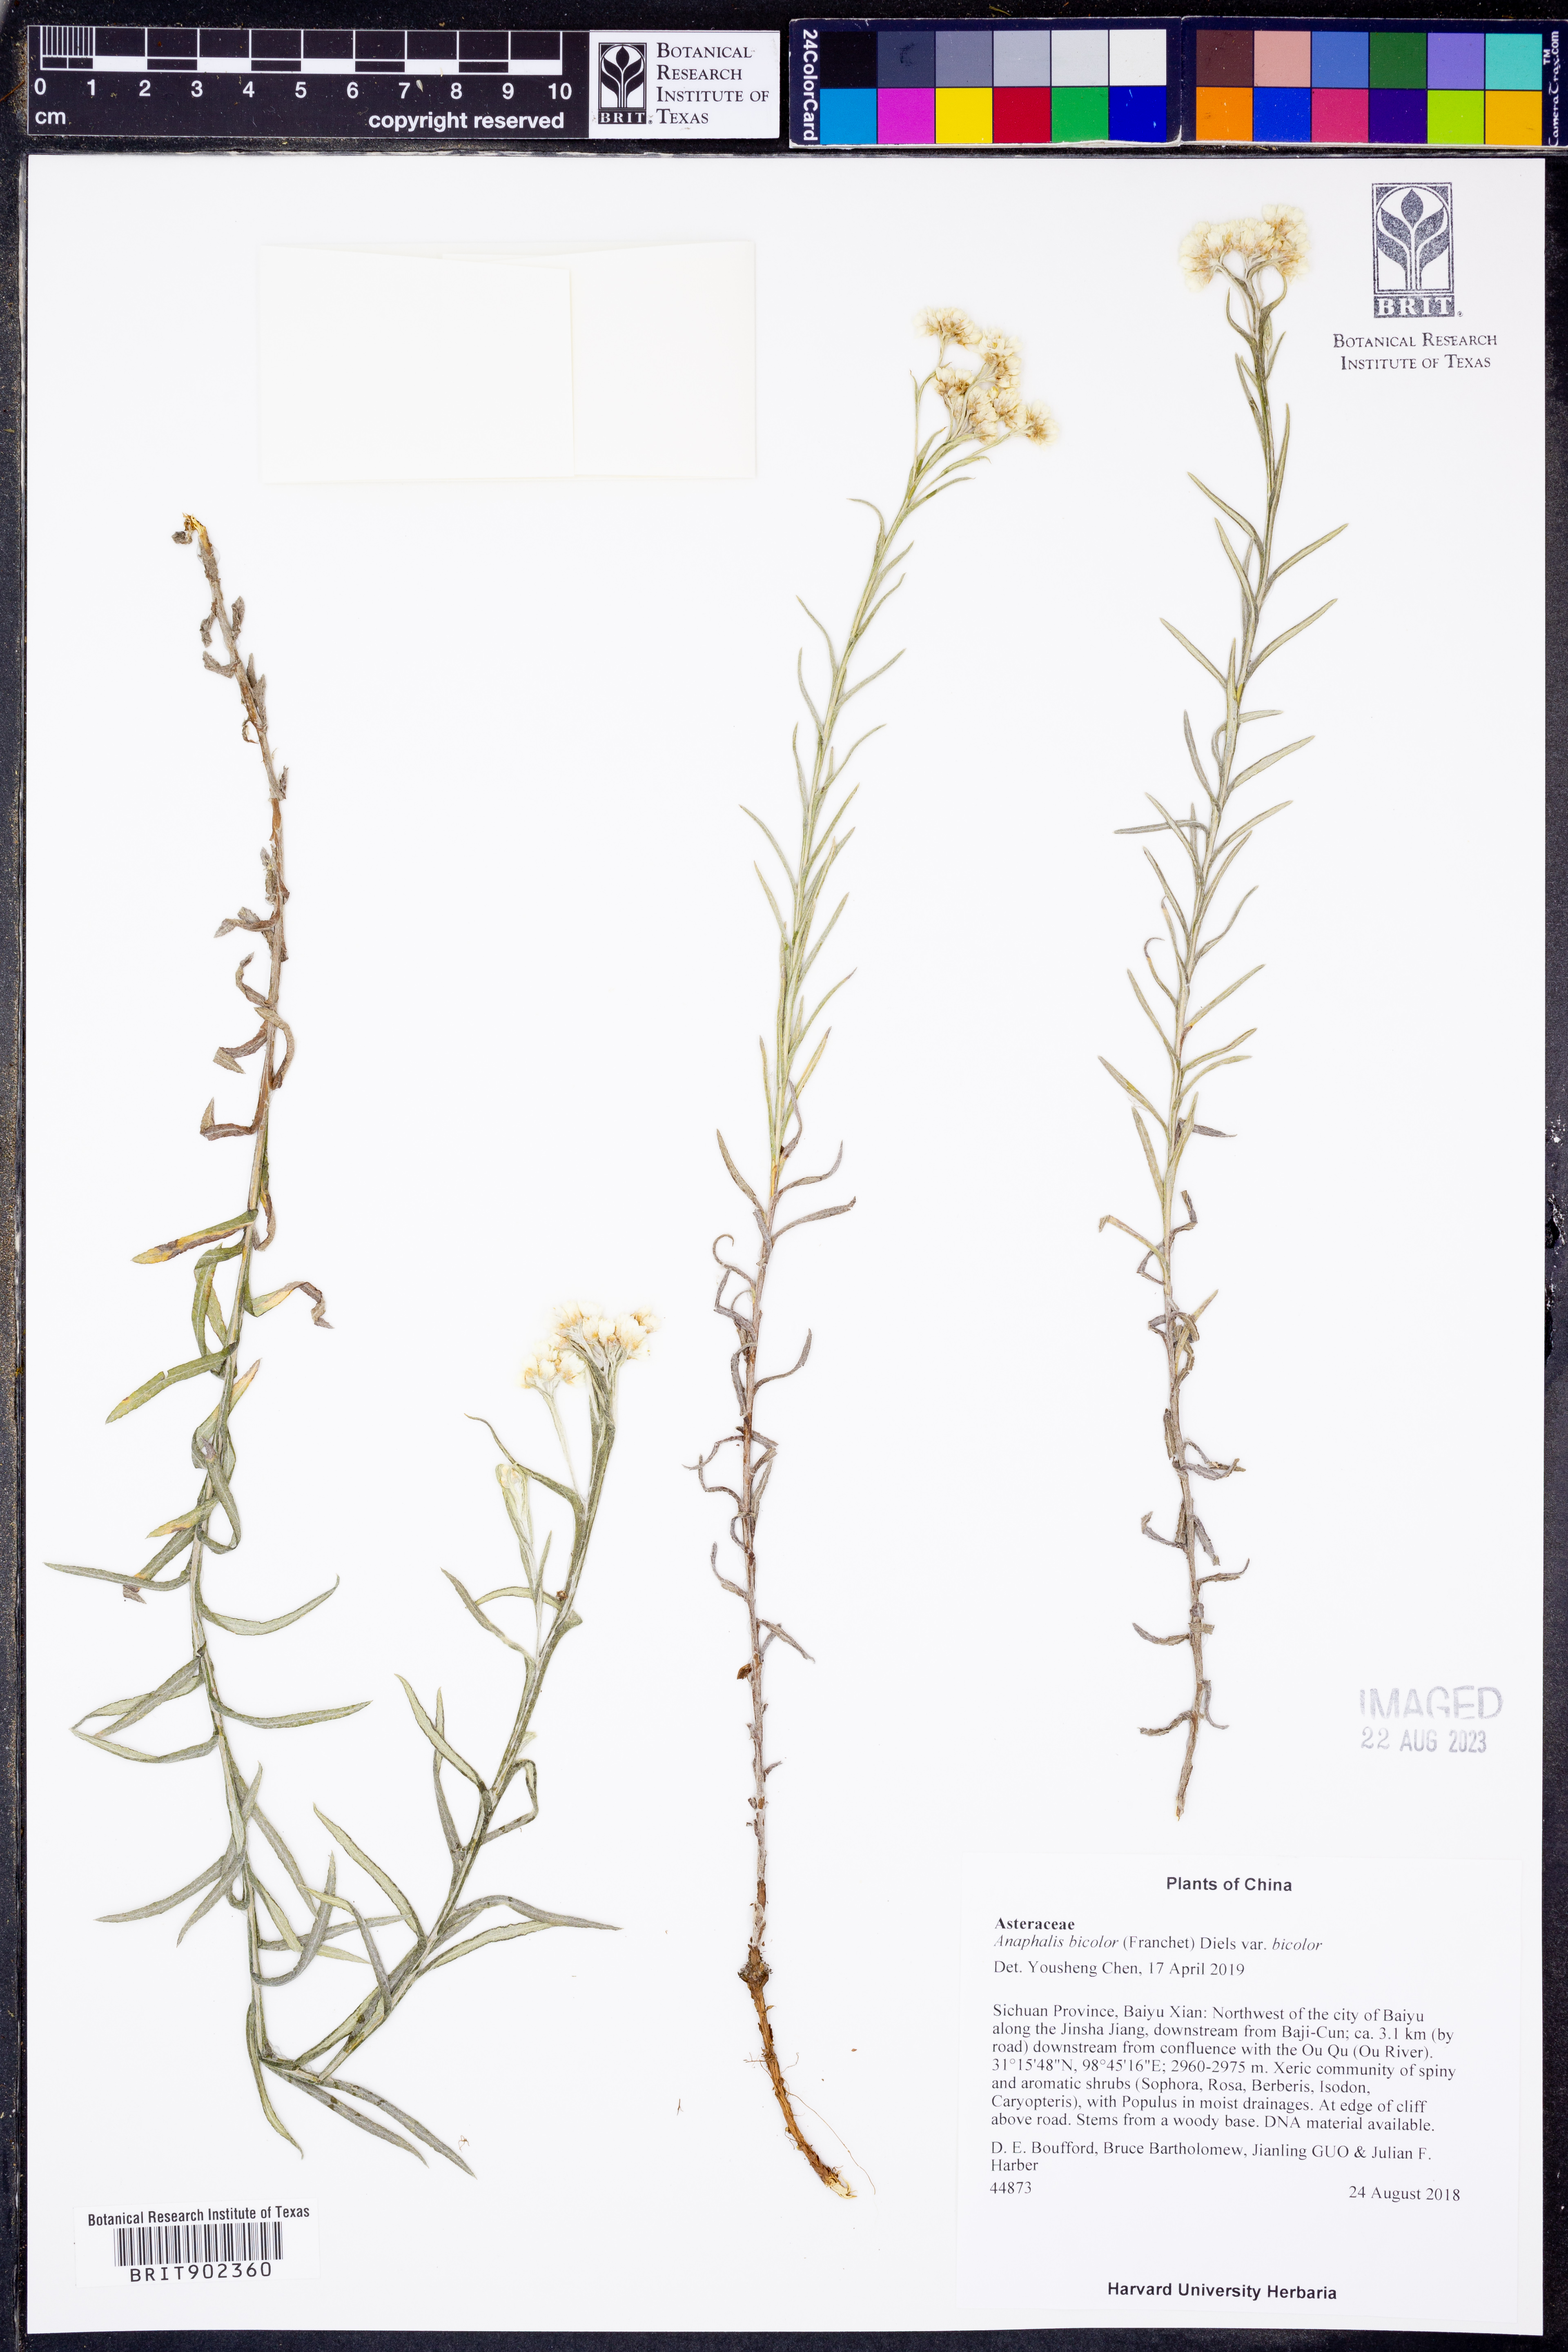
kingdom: Plantae
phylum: Tracheophyta
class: Magnoliopsida
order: Asterales
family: Asteraceae
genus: Anaphalis
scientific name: Anaphalis bicolor
